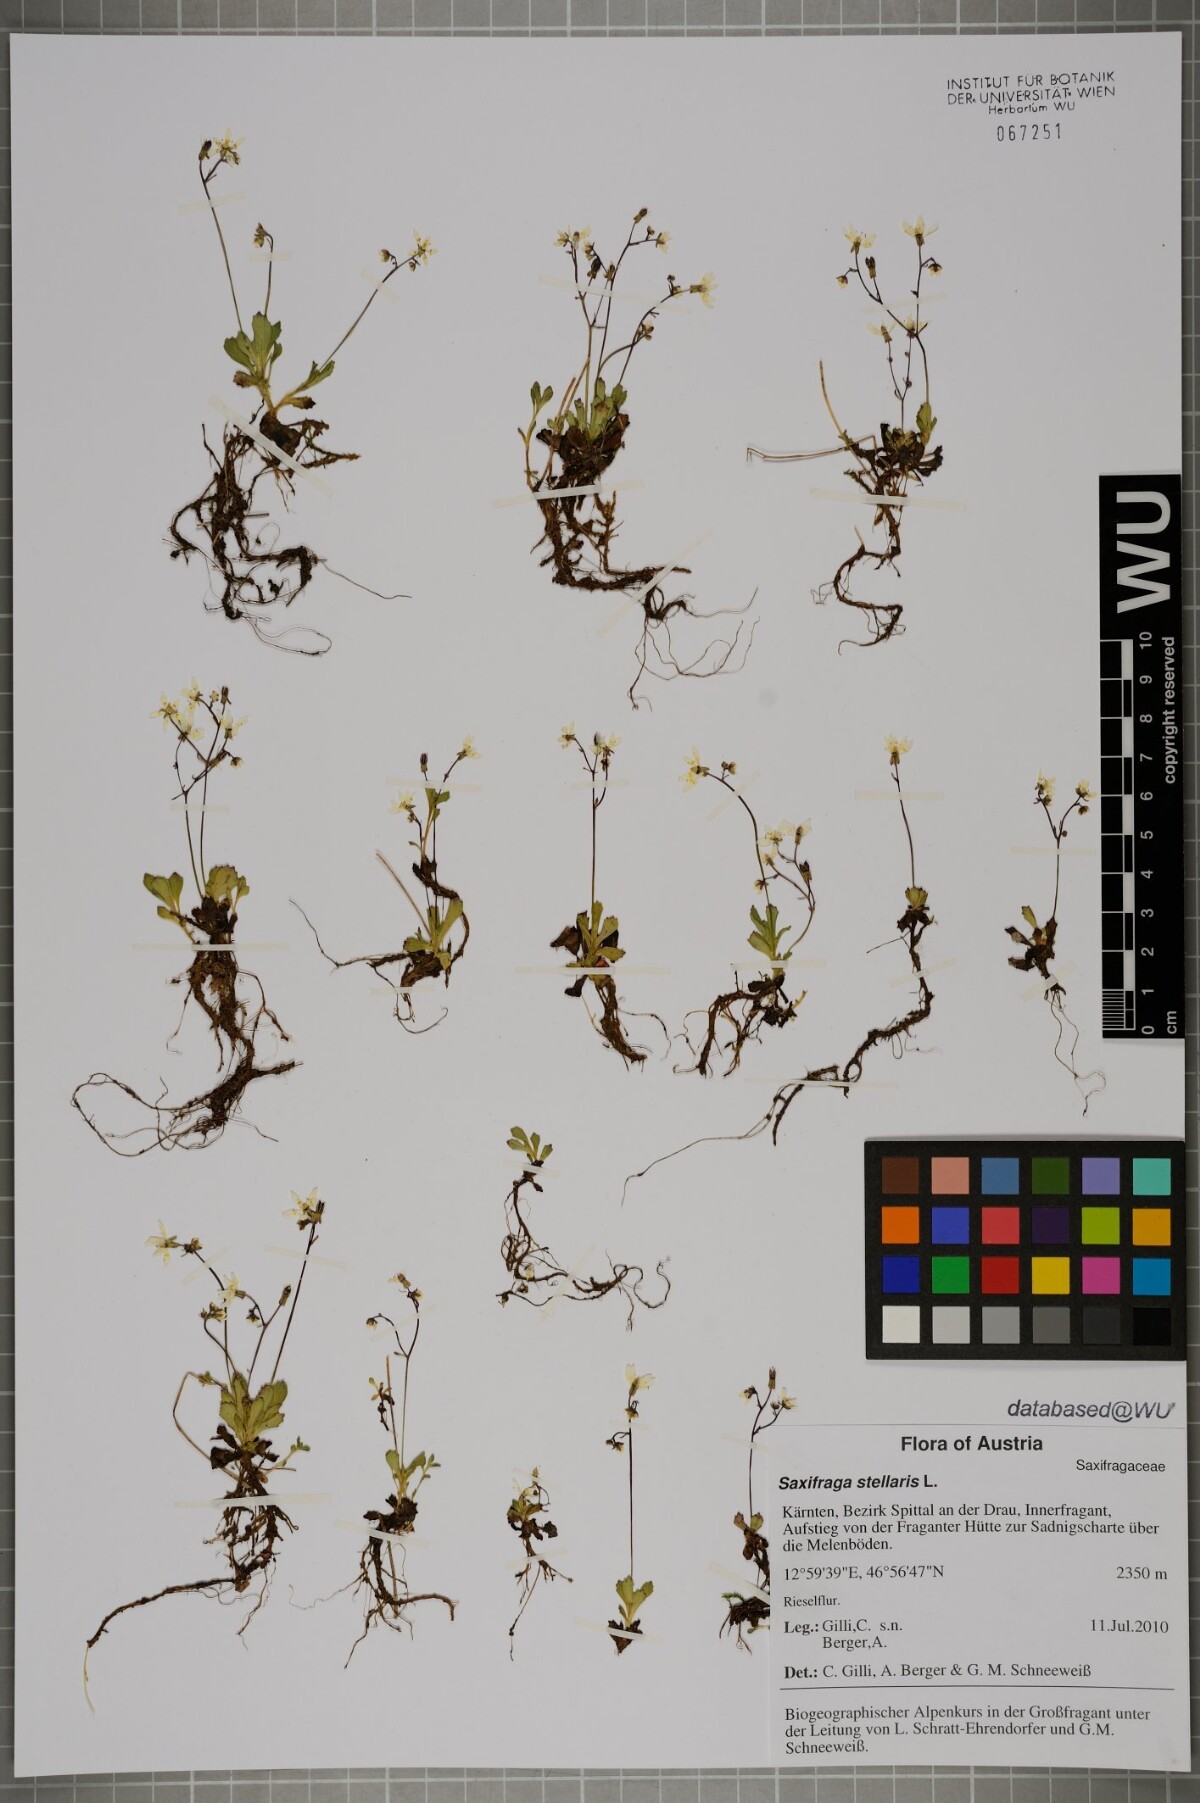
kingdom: Plantae
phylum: Tracheophyta
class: Magnoliopsida
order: Saxifragales
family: Saxifragaceae
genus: Micranthes
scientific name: Micranthes stellaris
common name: Starry saxifrage
